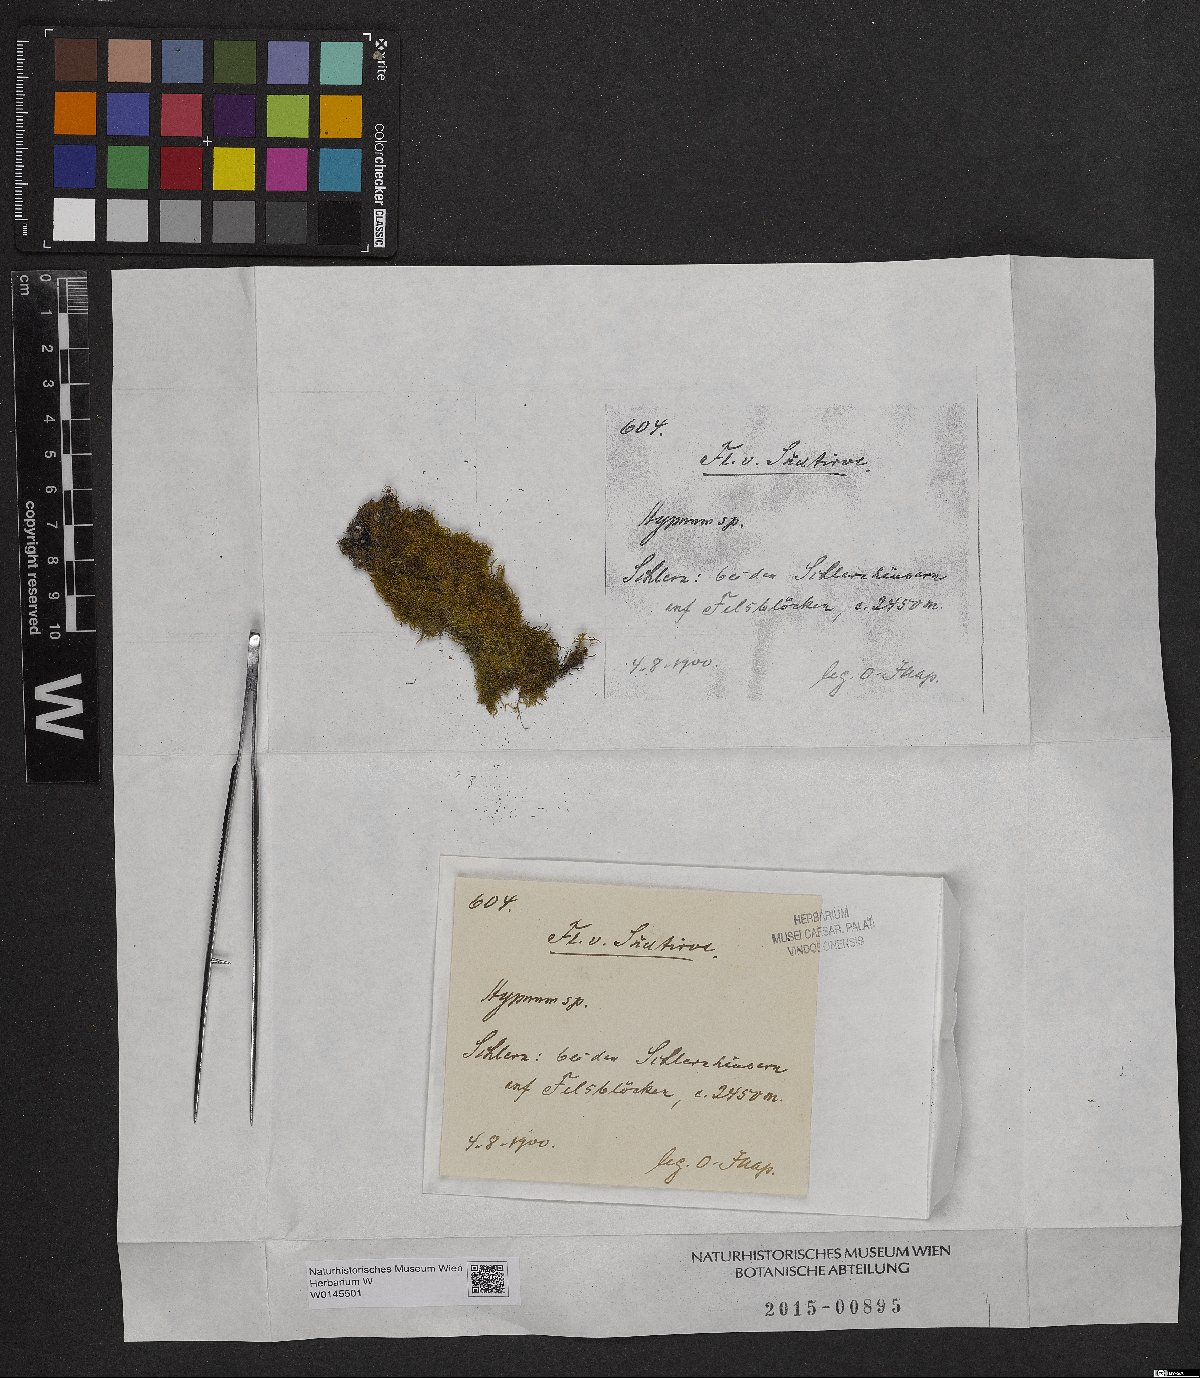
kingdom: Plantae
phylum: Bryophyta
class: Bryopsida
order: Hypnales
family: Hypnaceae
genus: Hypnum
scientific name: Hypnum
